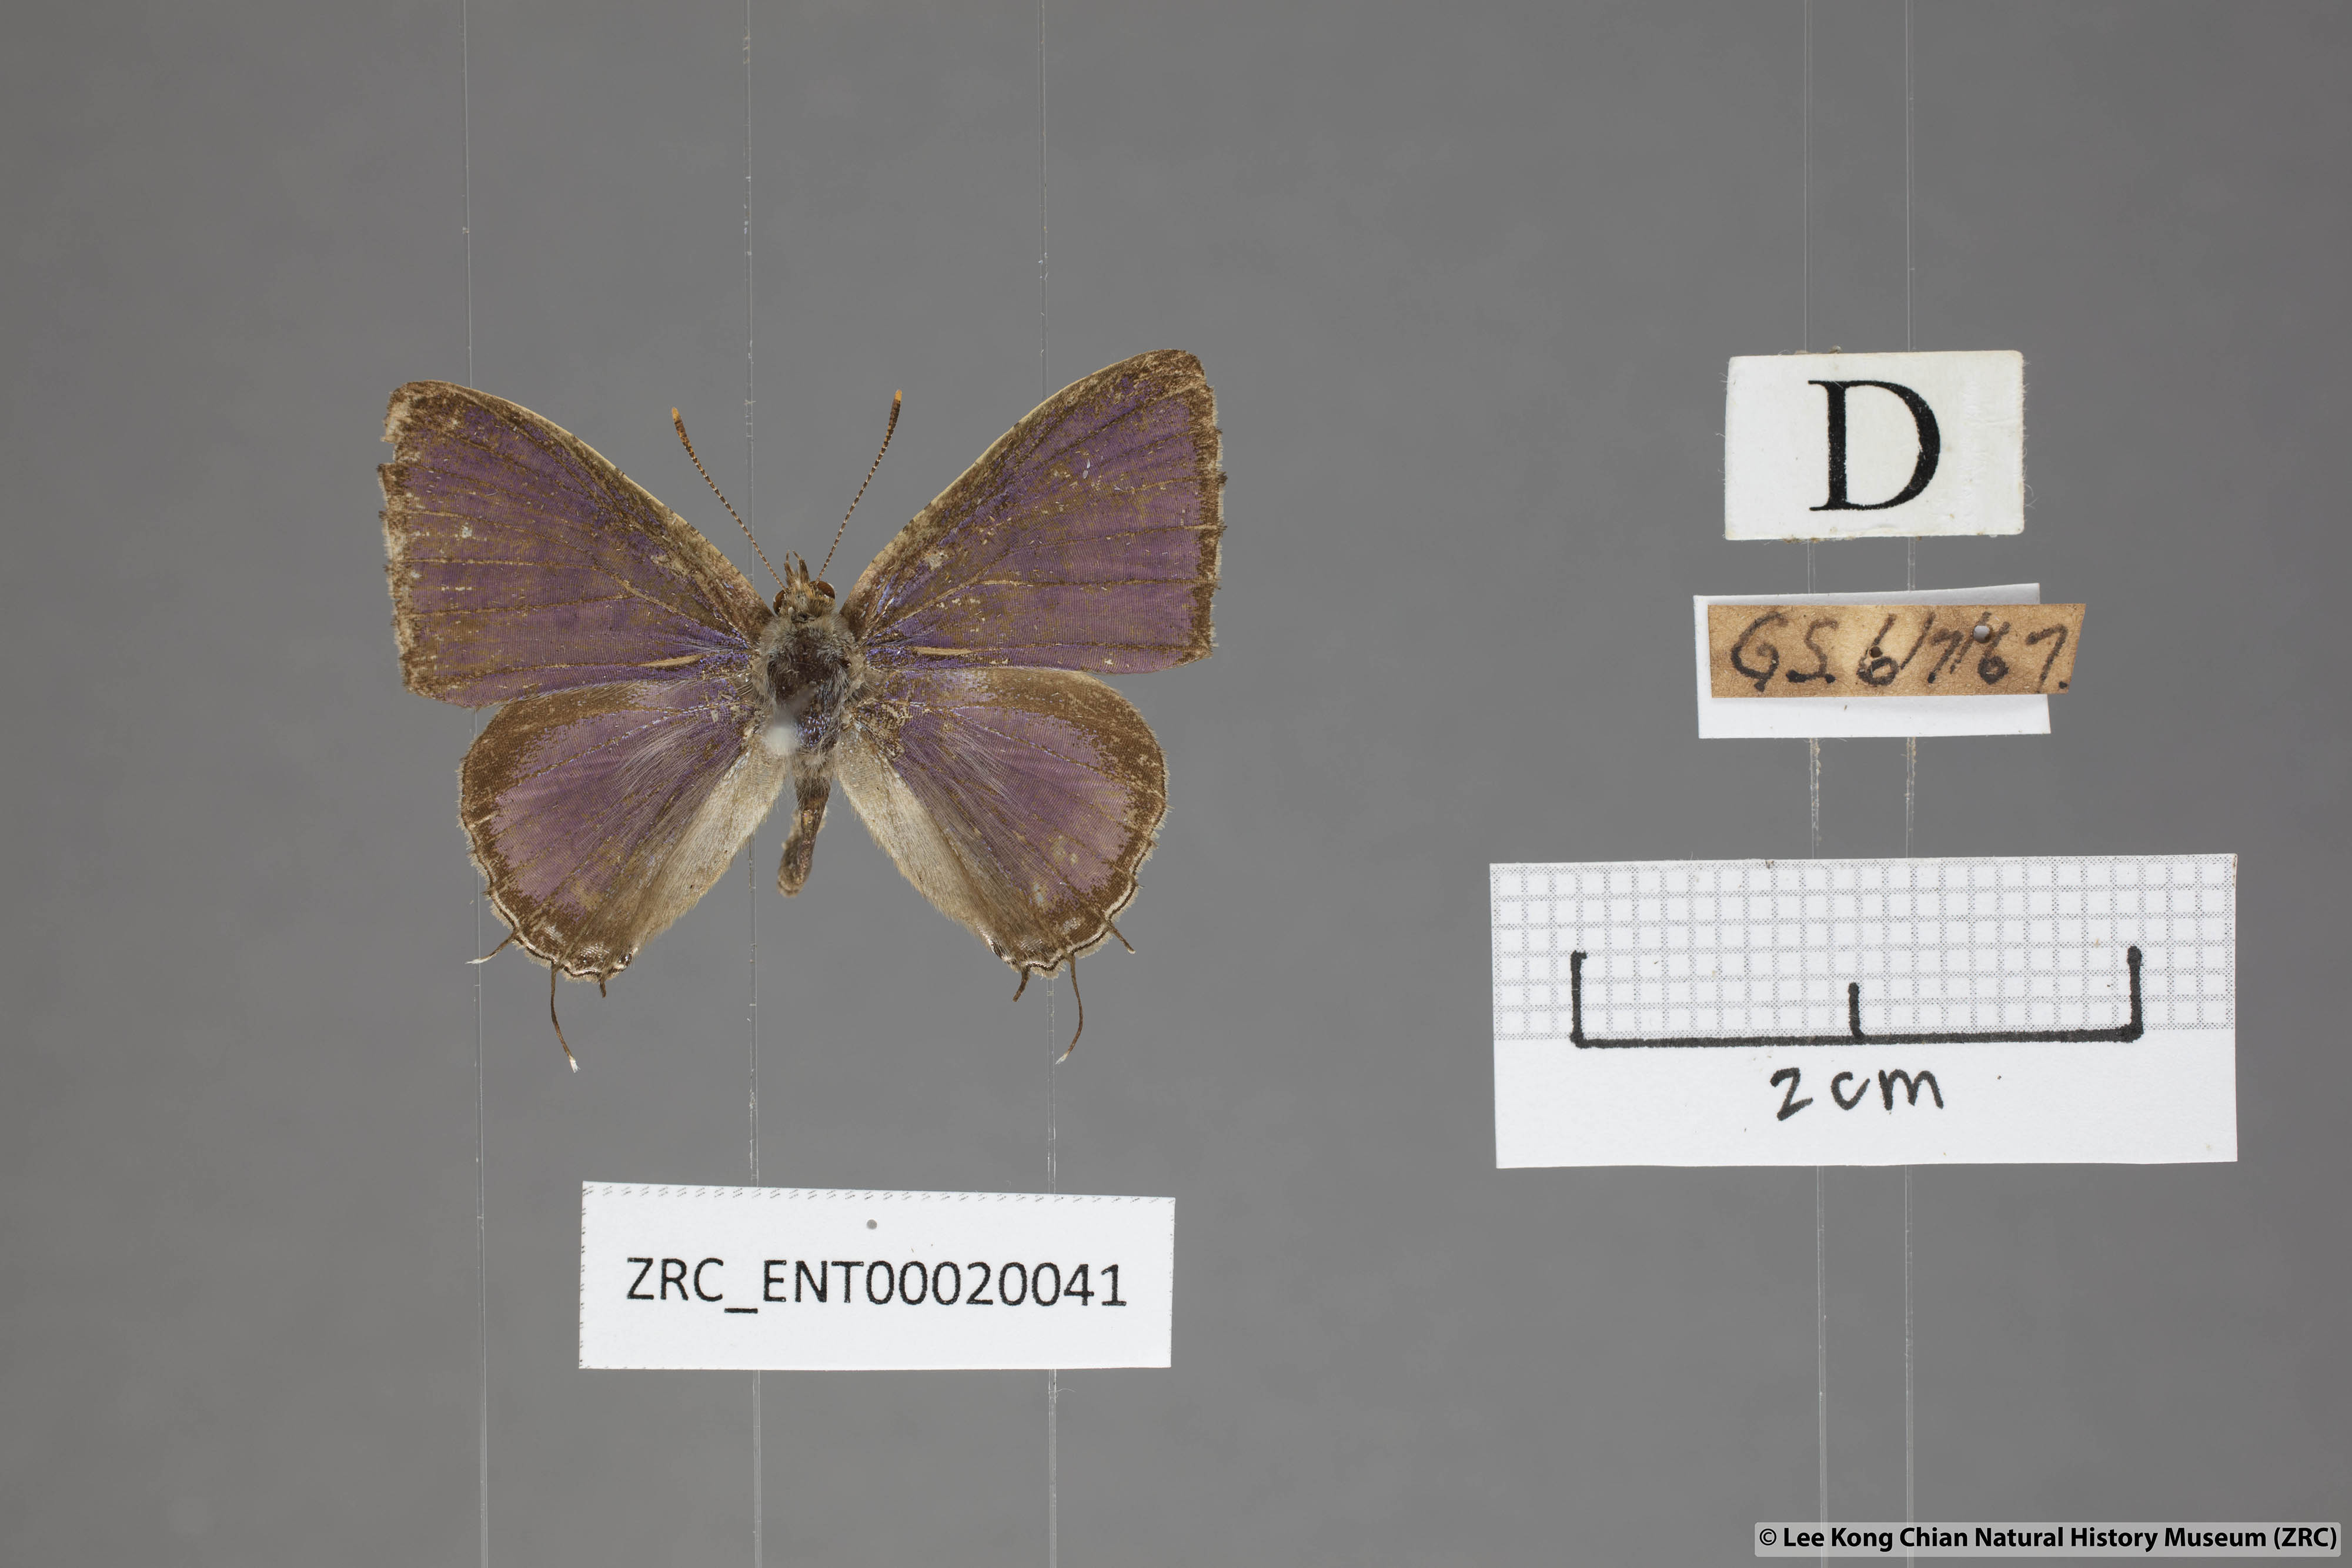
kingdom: Animalia
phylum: Arthropoda
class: Insecta
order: Lepidoptera
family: Lycaenidae
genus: Catapaecilma
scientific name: Catapaecilma major
